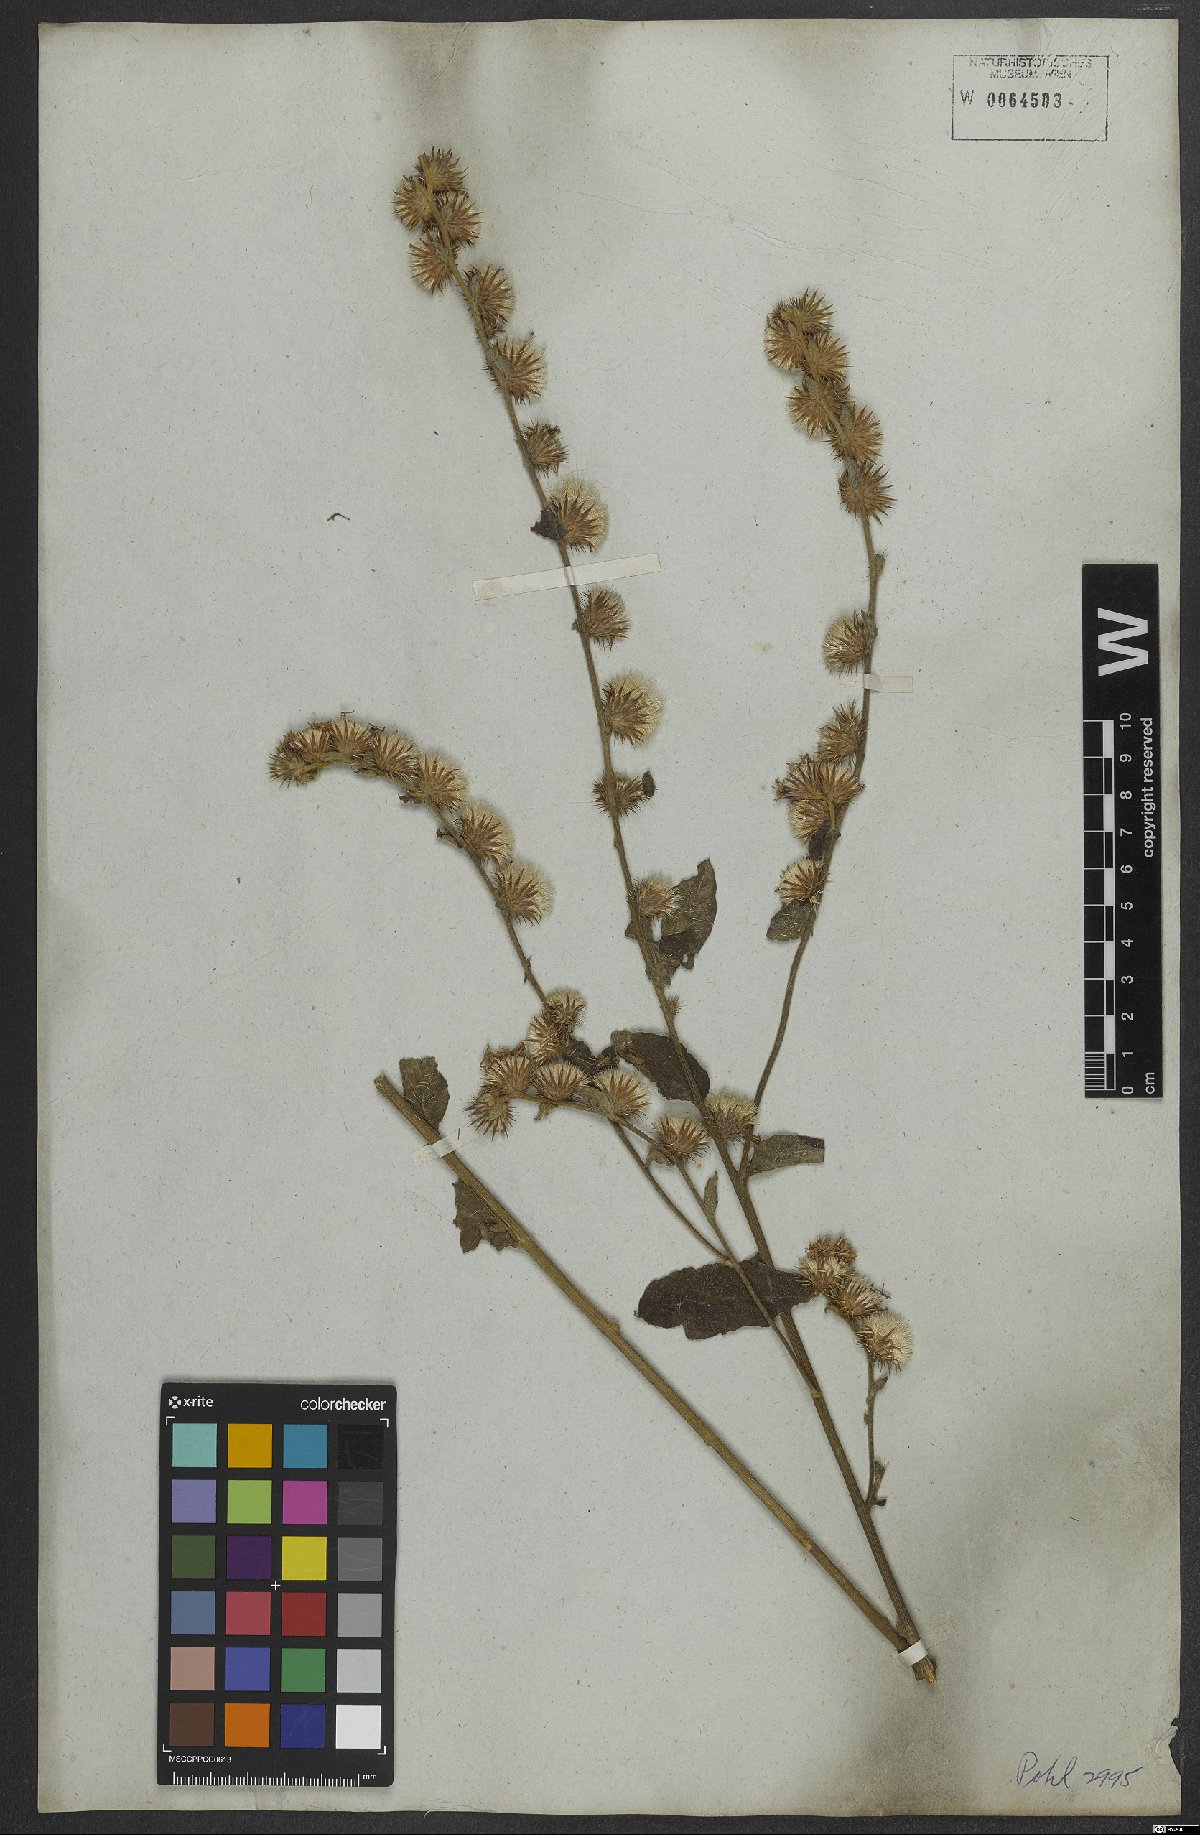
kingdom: Plantae
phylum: Tracheophyta
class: Magnoliopsida
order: Asterales
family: Asteraceae
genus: Lepidaploa
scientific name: Lepidaploa aurea
